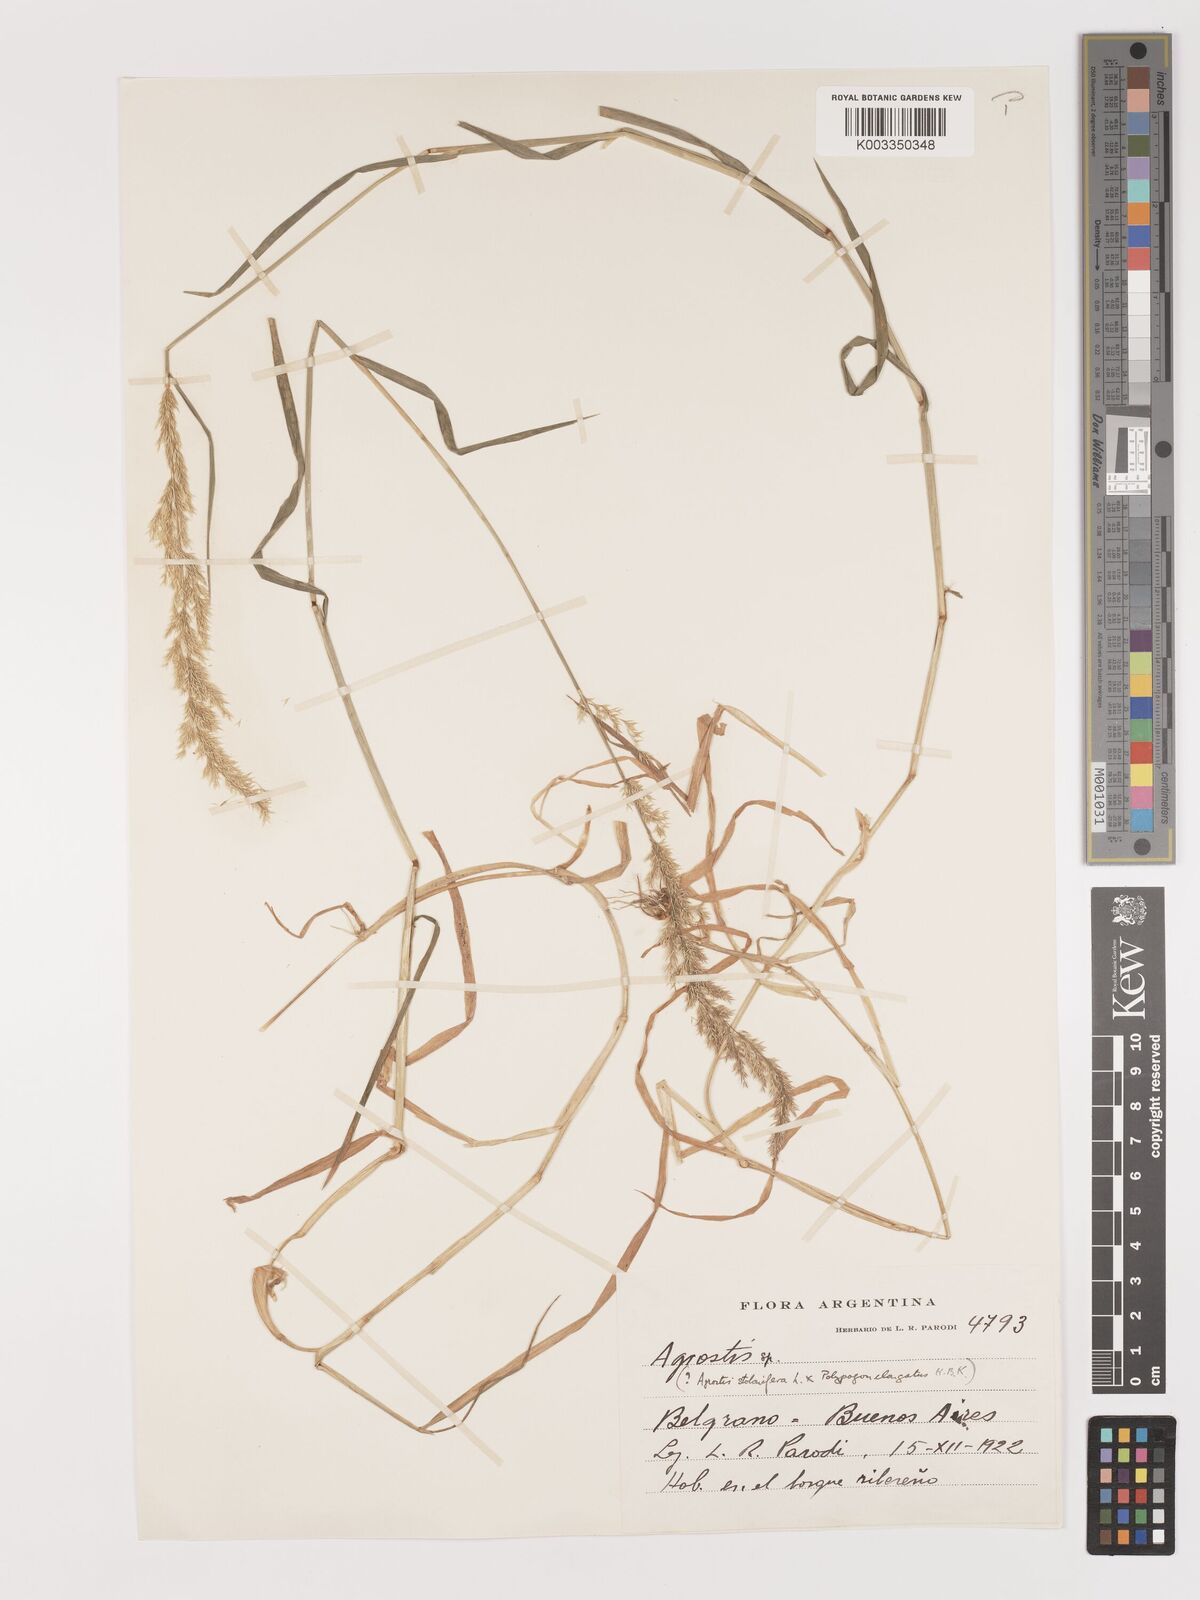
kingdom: Plantae
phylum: Tracheophyta
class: Liliopsida
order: Poales
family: Poaceae
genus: Agrostis
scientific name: Agrostis
